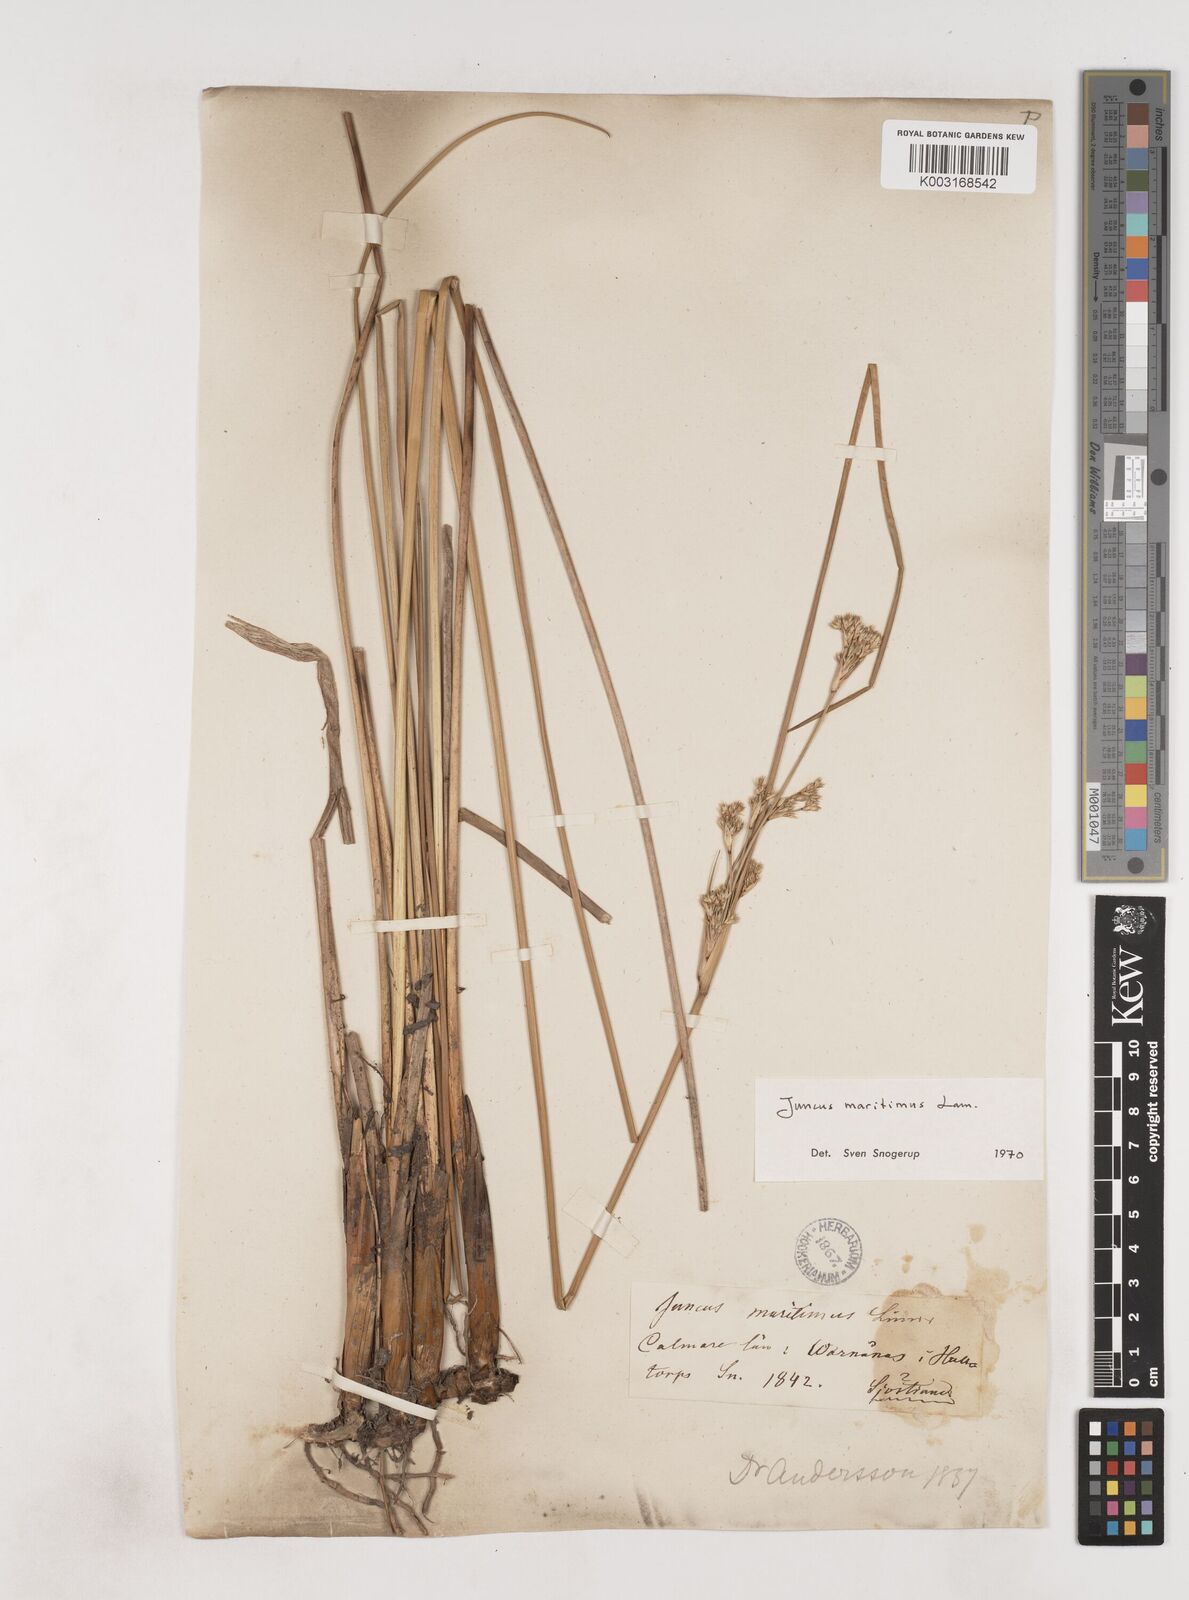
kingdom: Plantae
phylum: Tracheophyta
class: Liliopsida
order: Poales
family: Juncaceae
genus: Juncus
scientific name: Juncus maritimus
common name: Sea rush
